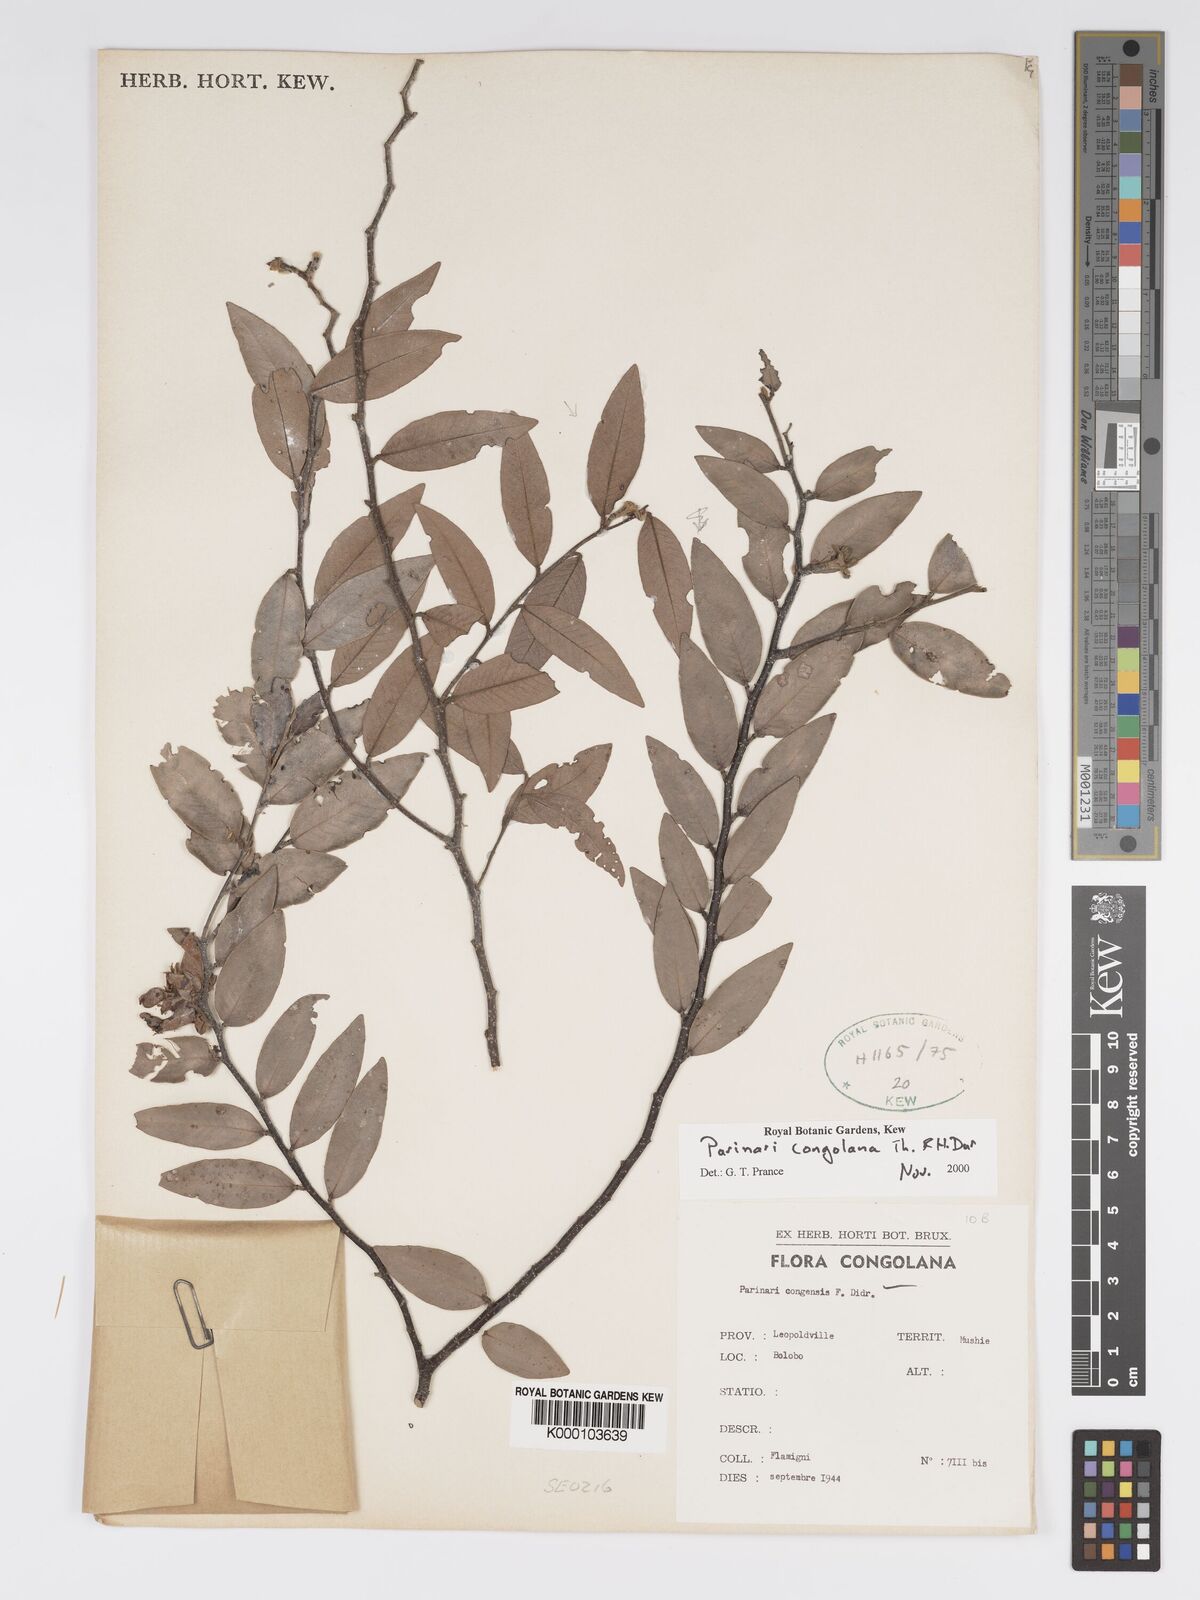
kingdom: Plantae
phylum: Tracheophyta
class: Magnoliopsida
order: Malpighiales
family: Chrysobalanaceae
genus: Parinari
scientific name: Parinari congolana
